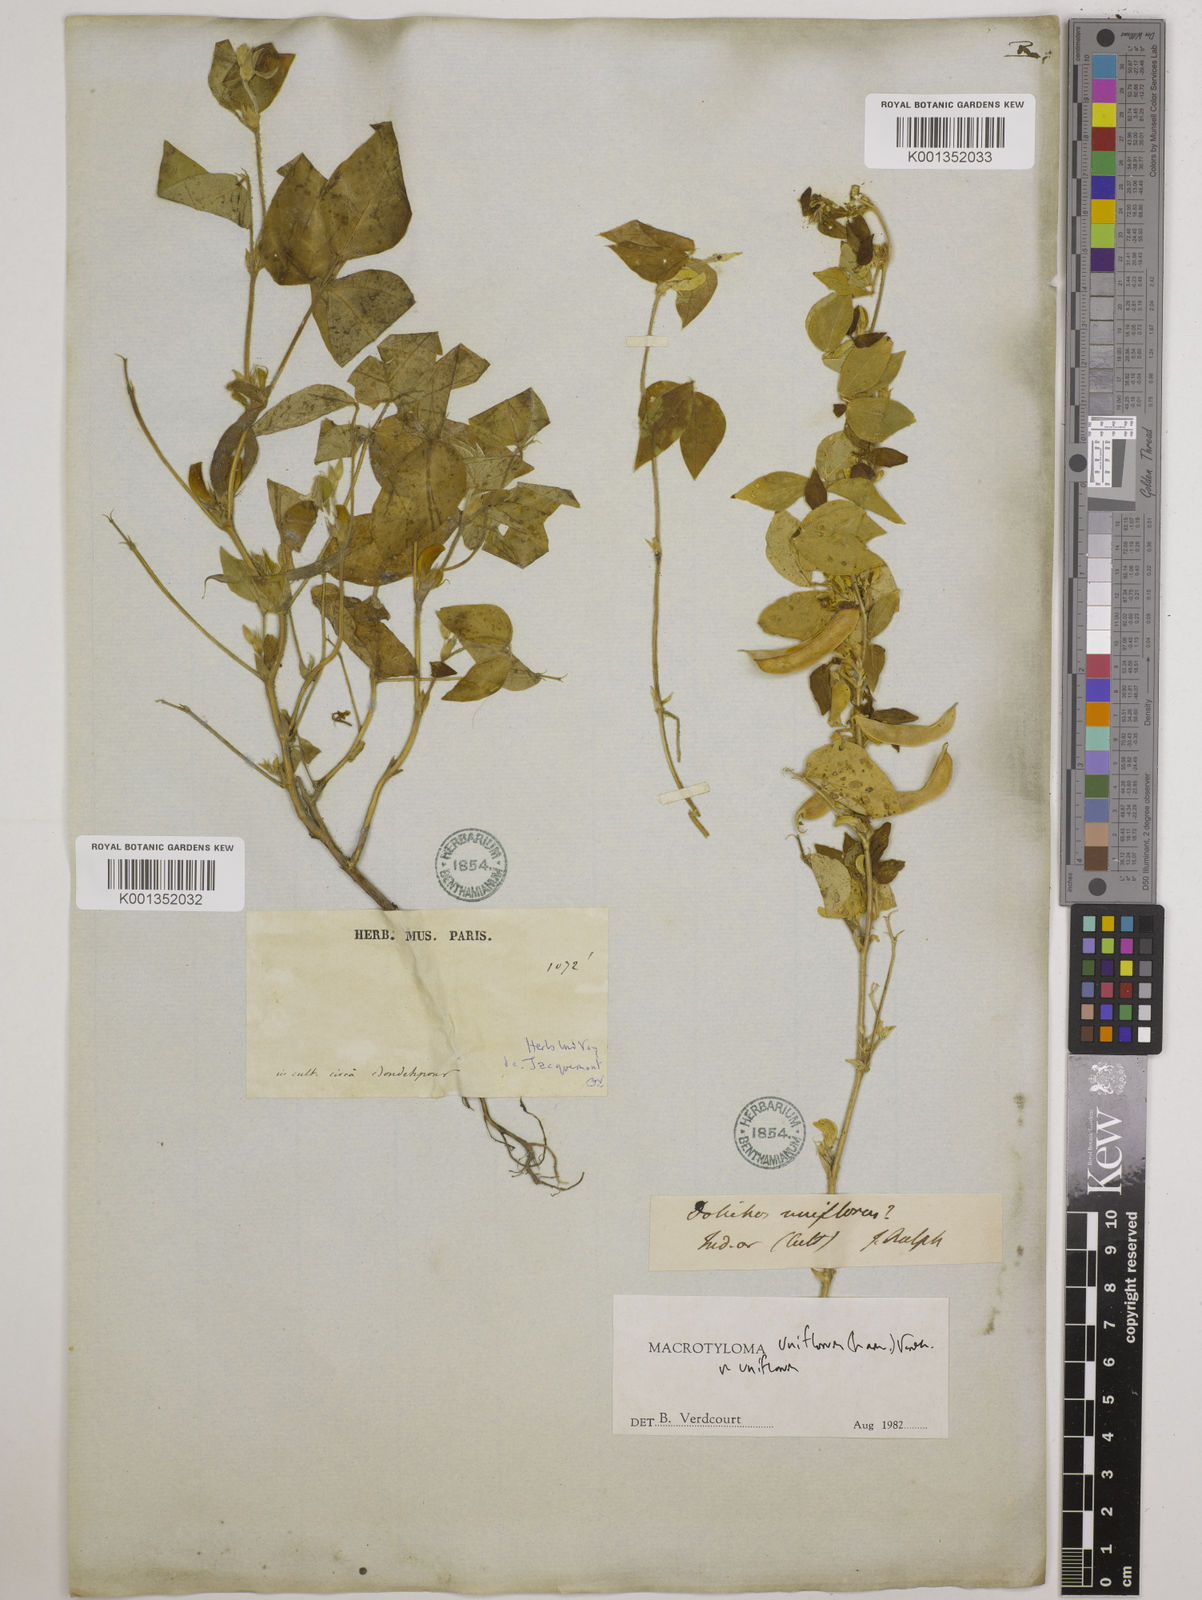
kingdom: Plantae
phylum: Tracheophyta
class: Magnoliopsida
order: Fabales
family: Fabaceae
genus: Macrotyloma
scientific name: Macrotyloma uniflorum
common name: Horse gram
